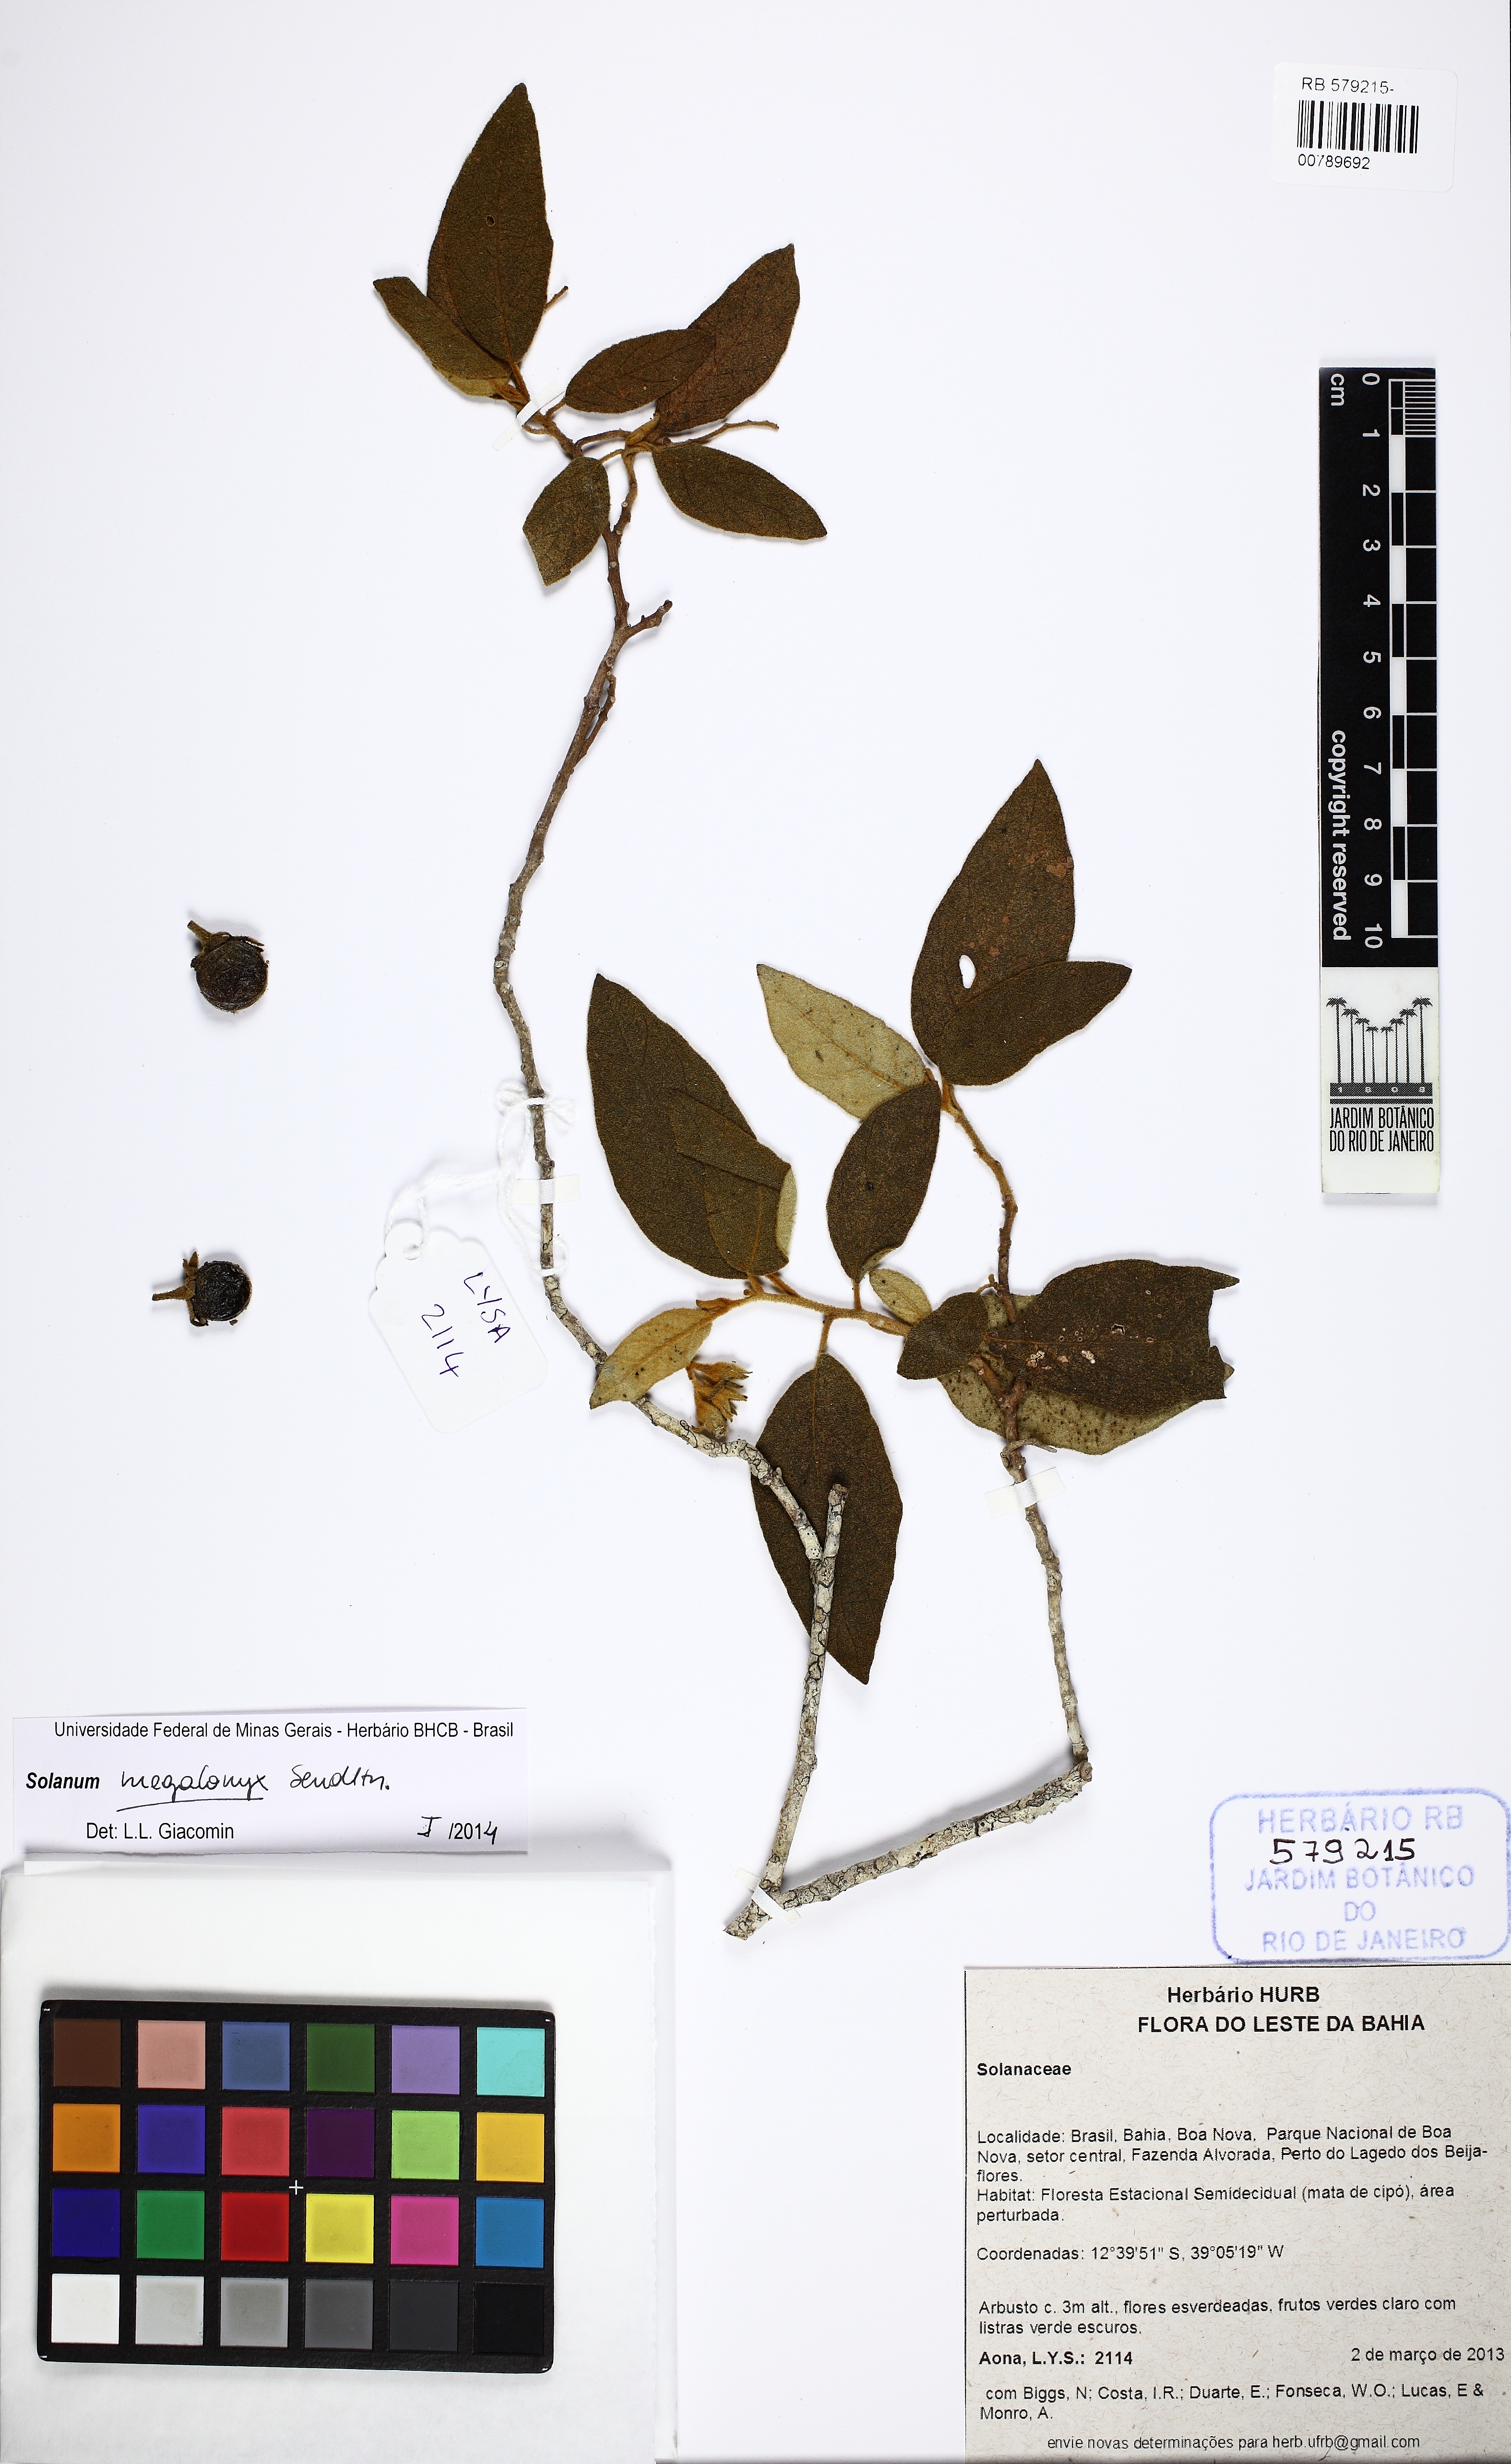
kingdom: Plantae
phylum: Tracheophyta
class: Magnoliopsida
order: Solanales
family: Solanaceae
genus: Solanum
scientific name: Solanum megalonyx
